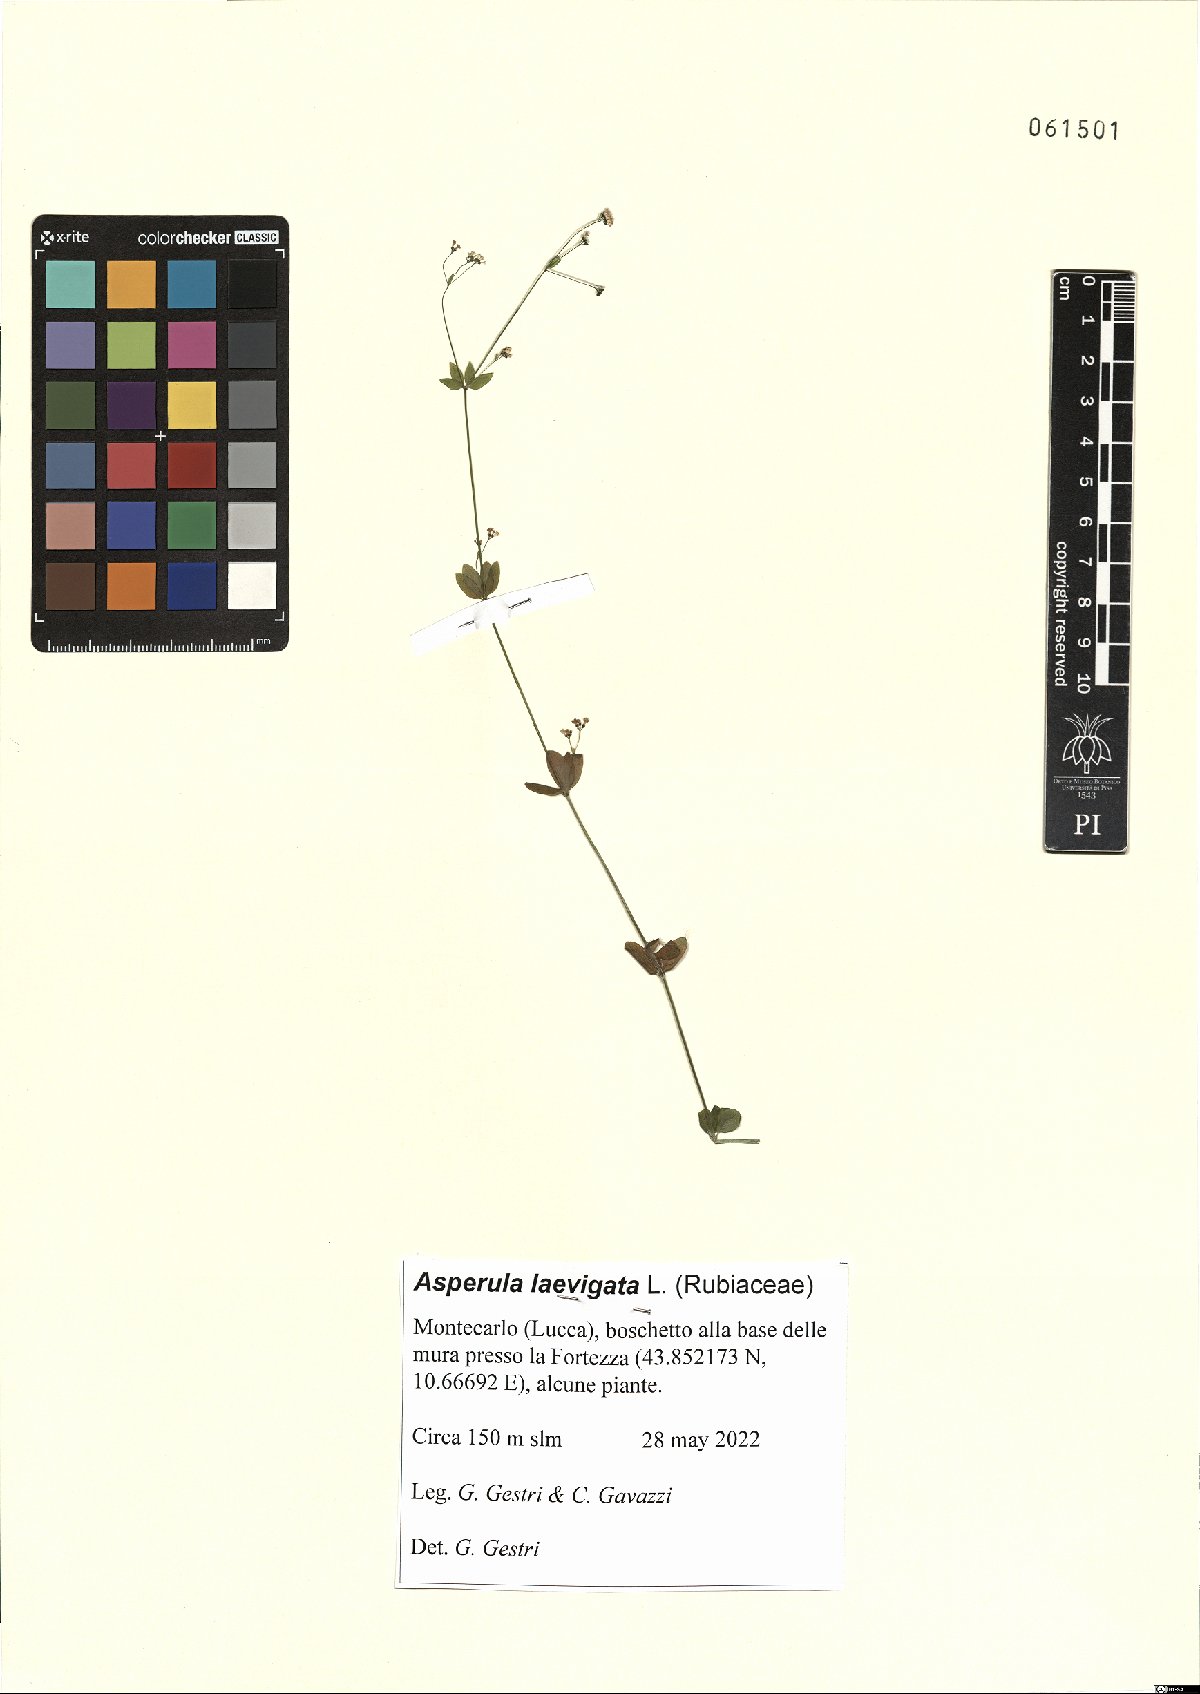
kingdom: Plantae
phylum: Tracheophyta
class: Magnoliopsida
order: Gentianales
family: Rubiaceae
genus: Asperula
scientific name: Asperula laevigata
